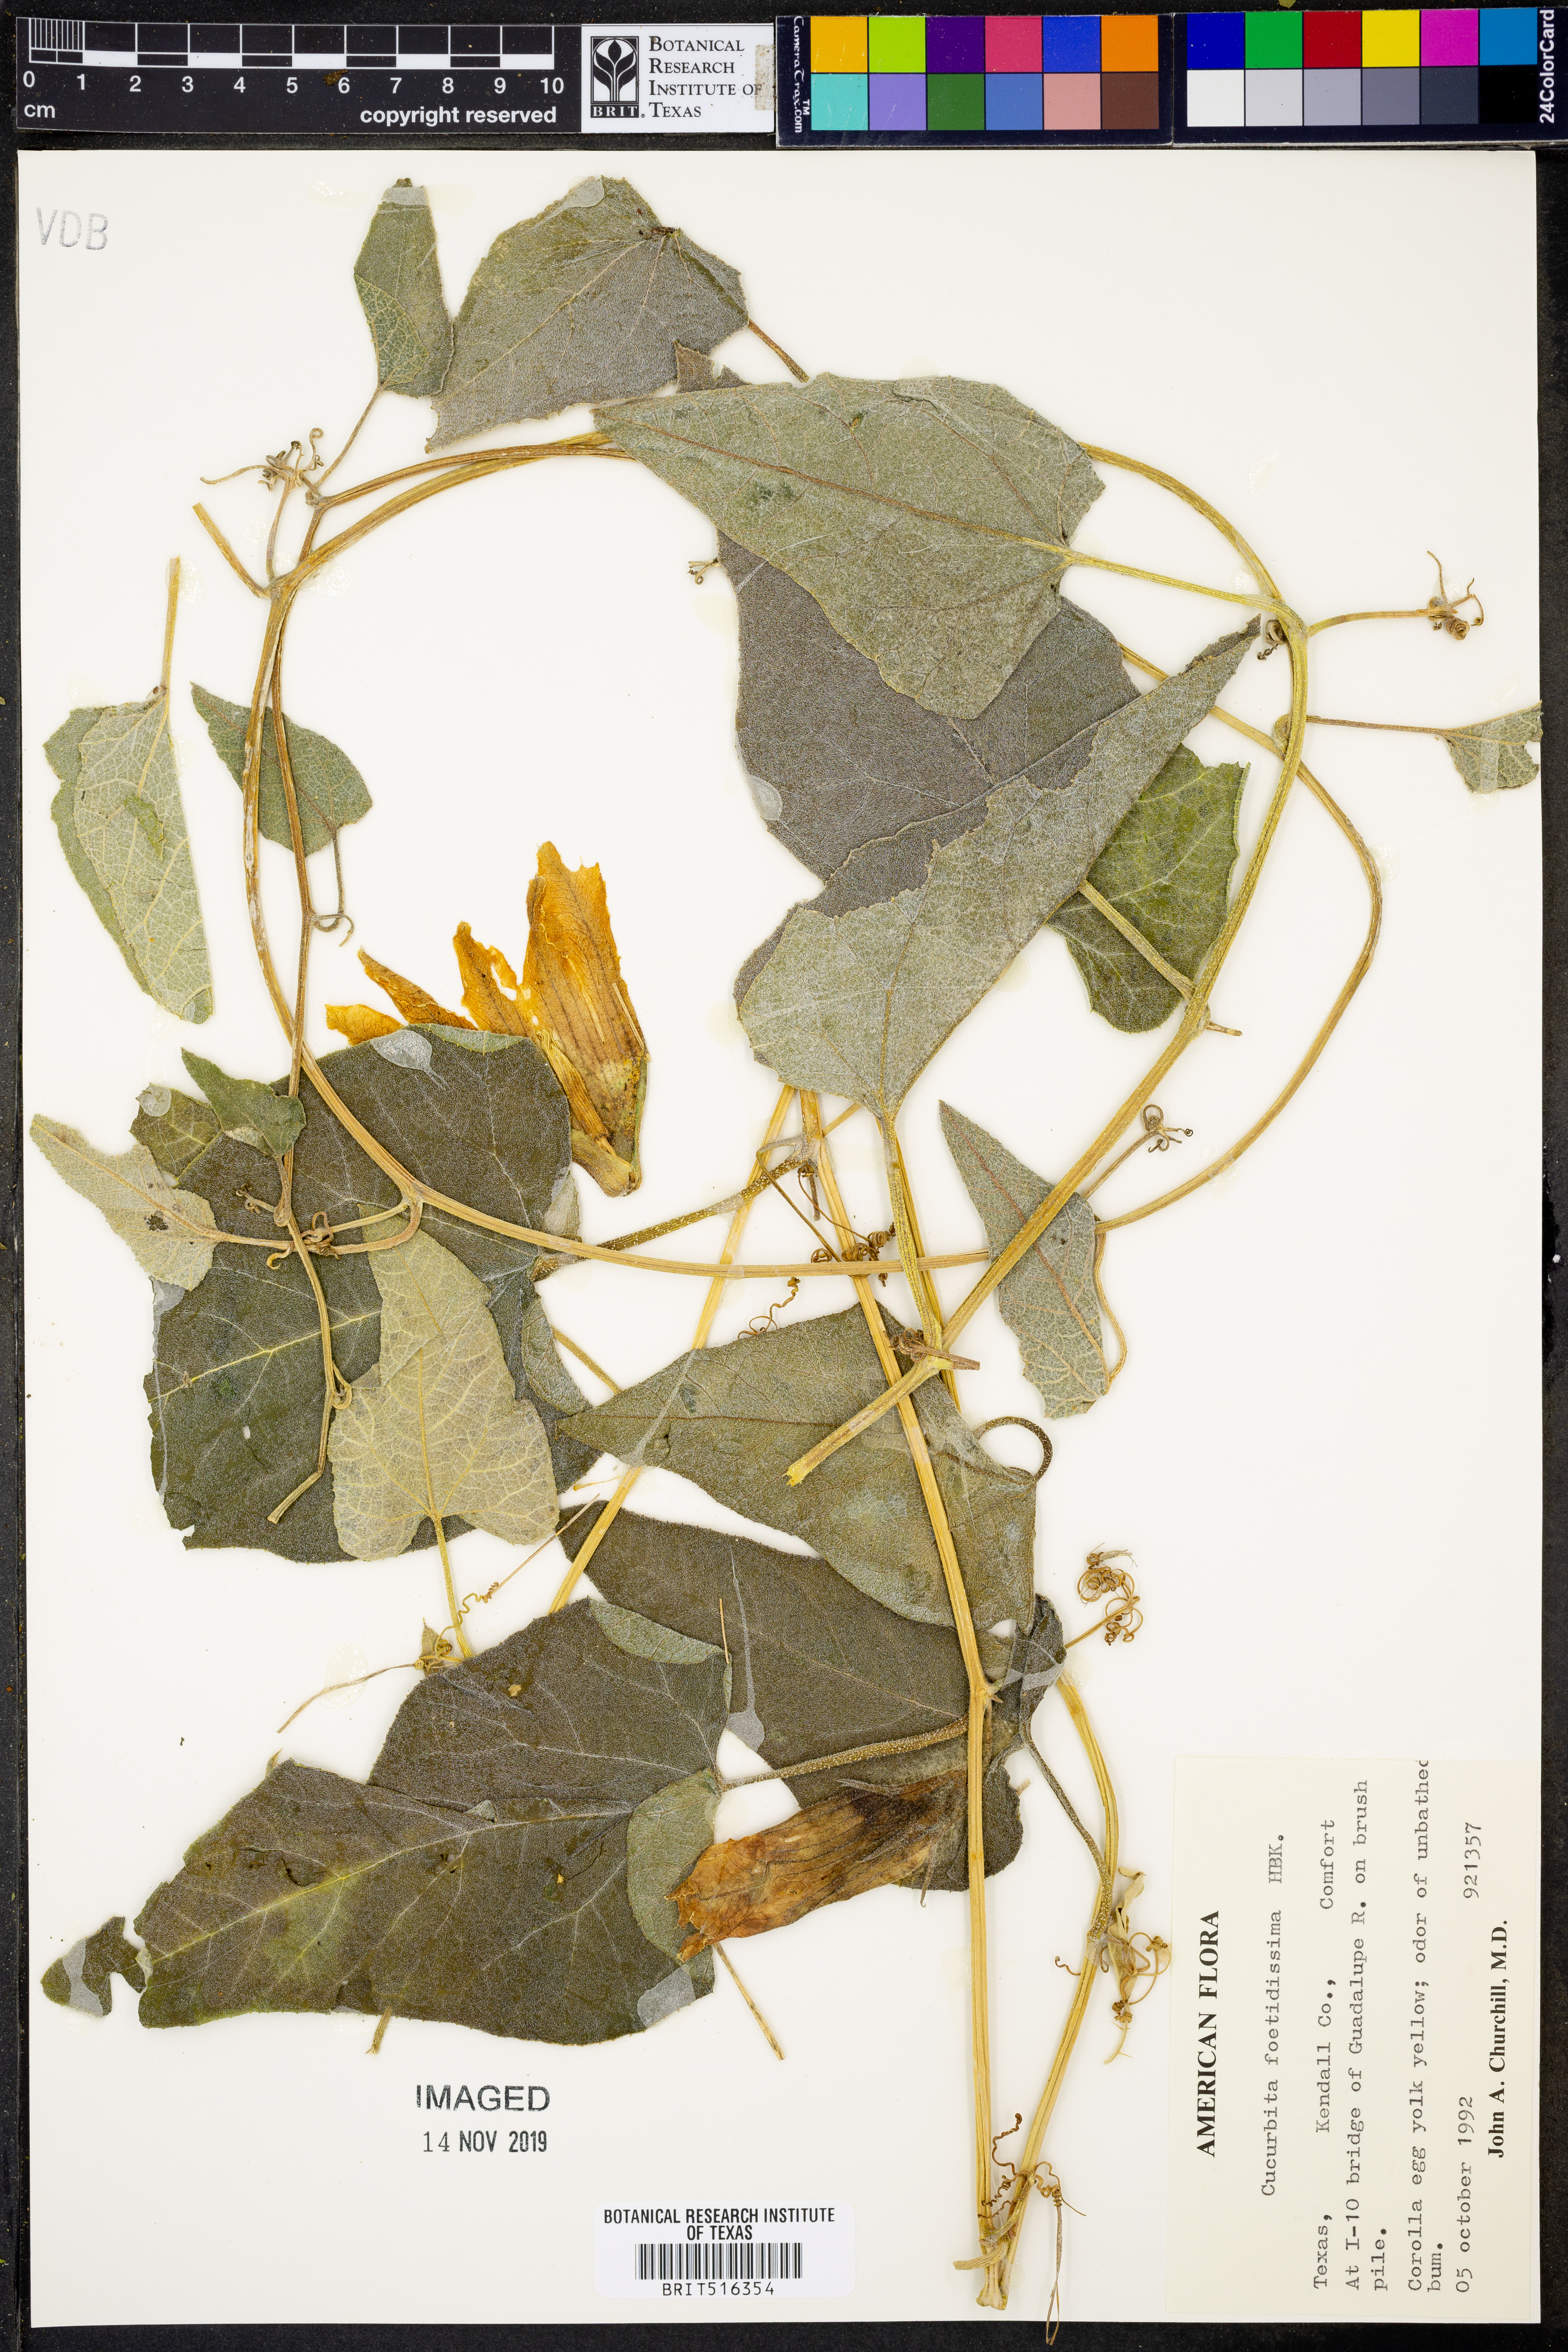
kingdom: Plantae
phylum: Tracheophyta
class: Magnoliopsida
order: Cucurbitales
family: Cucurbitaceae
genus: Cucurbita
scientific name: Cucurbita foetidissima
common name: Buffalo gourd
